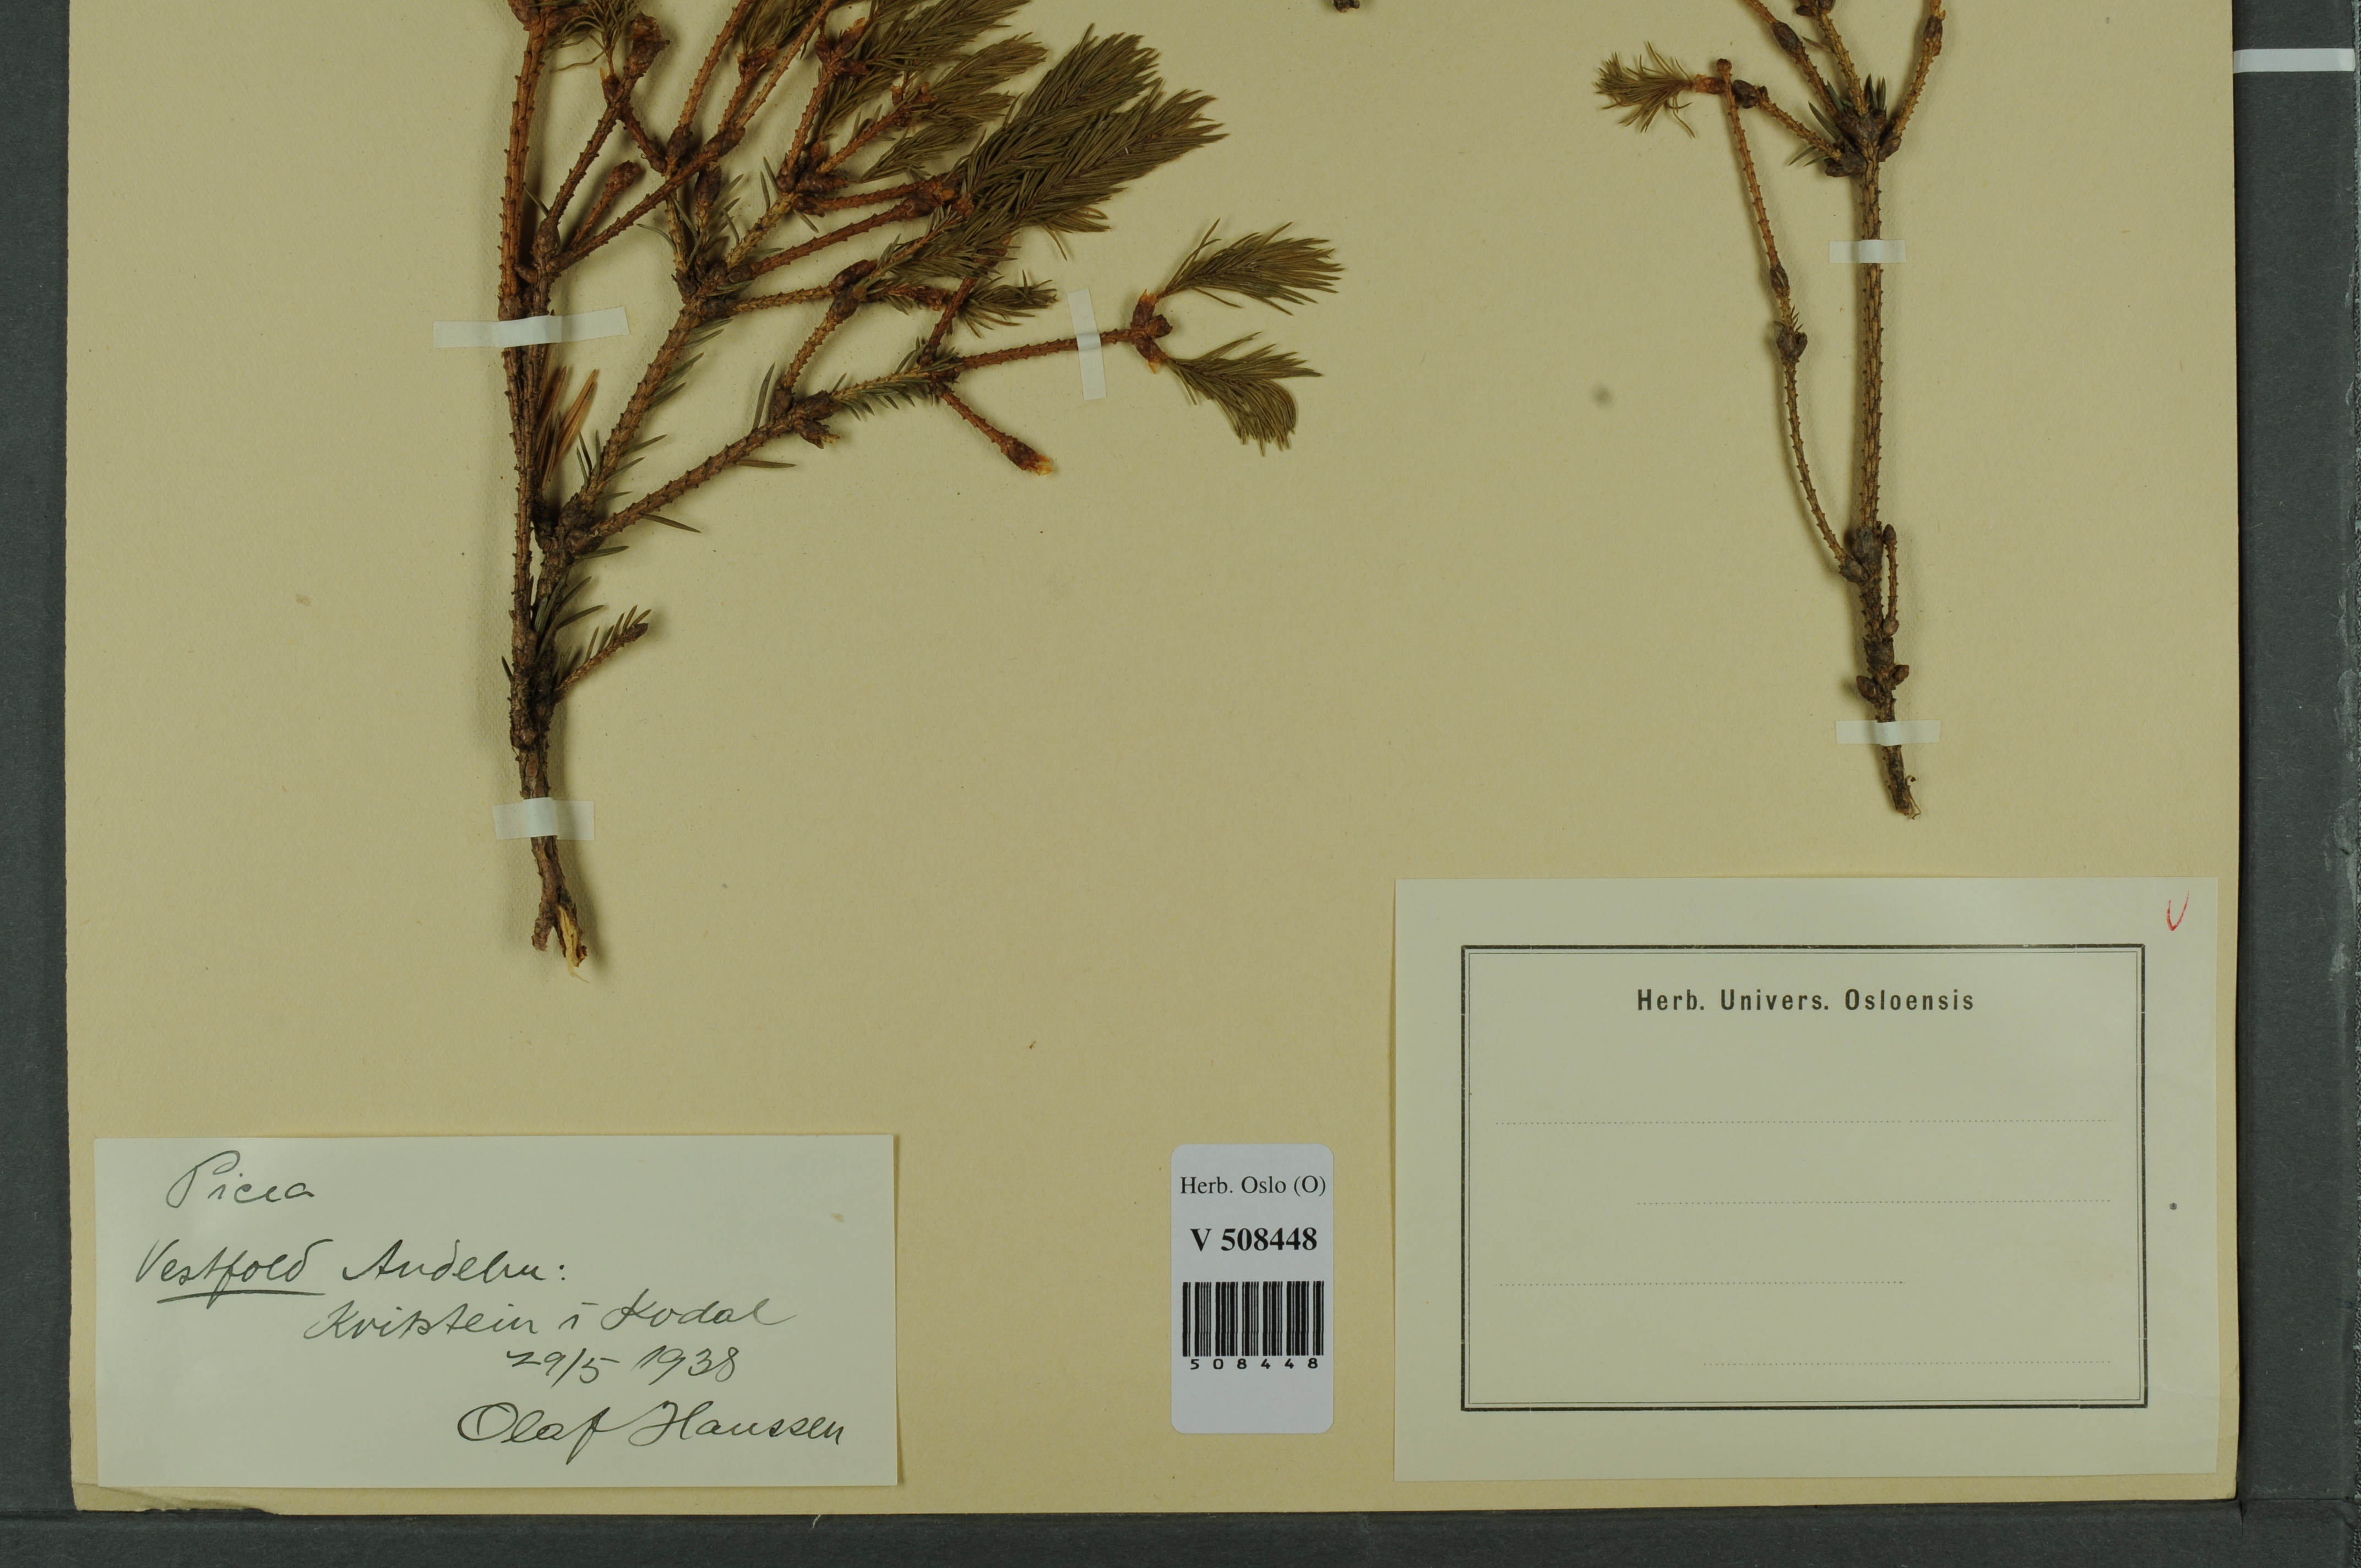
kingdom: Plantae
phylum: Tracheophyta
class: Pinopsida
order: Pinales
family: Pinaceae
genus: Picea
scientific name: Picea abies
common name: Norway spruce
